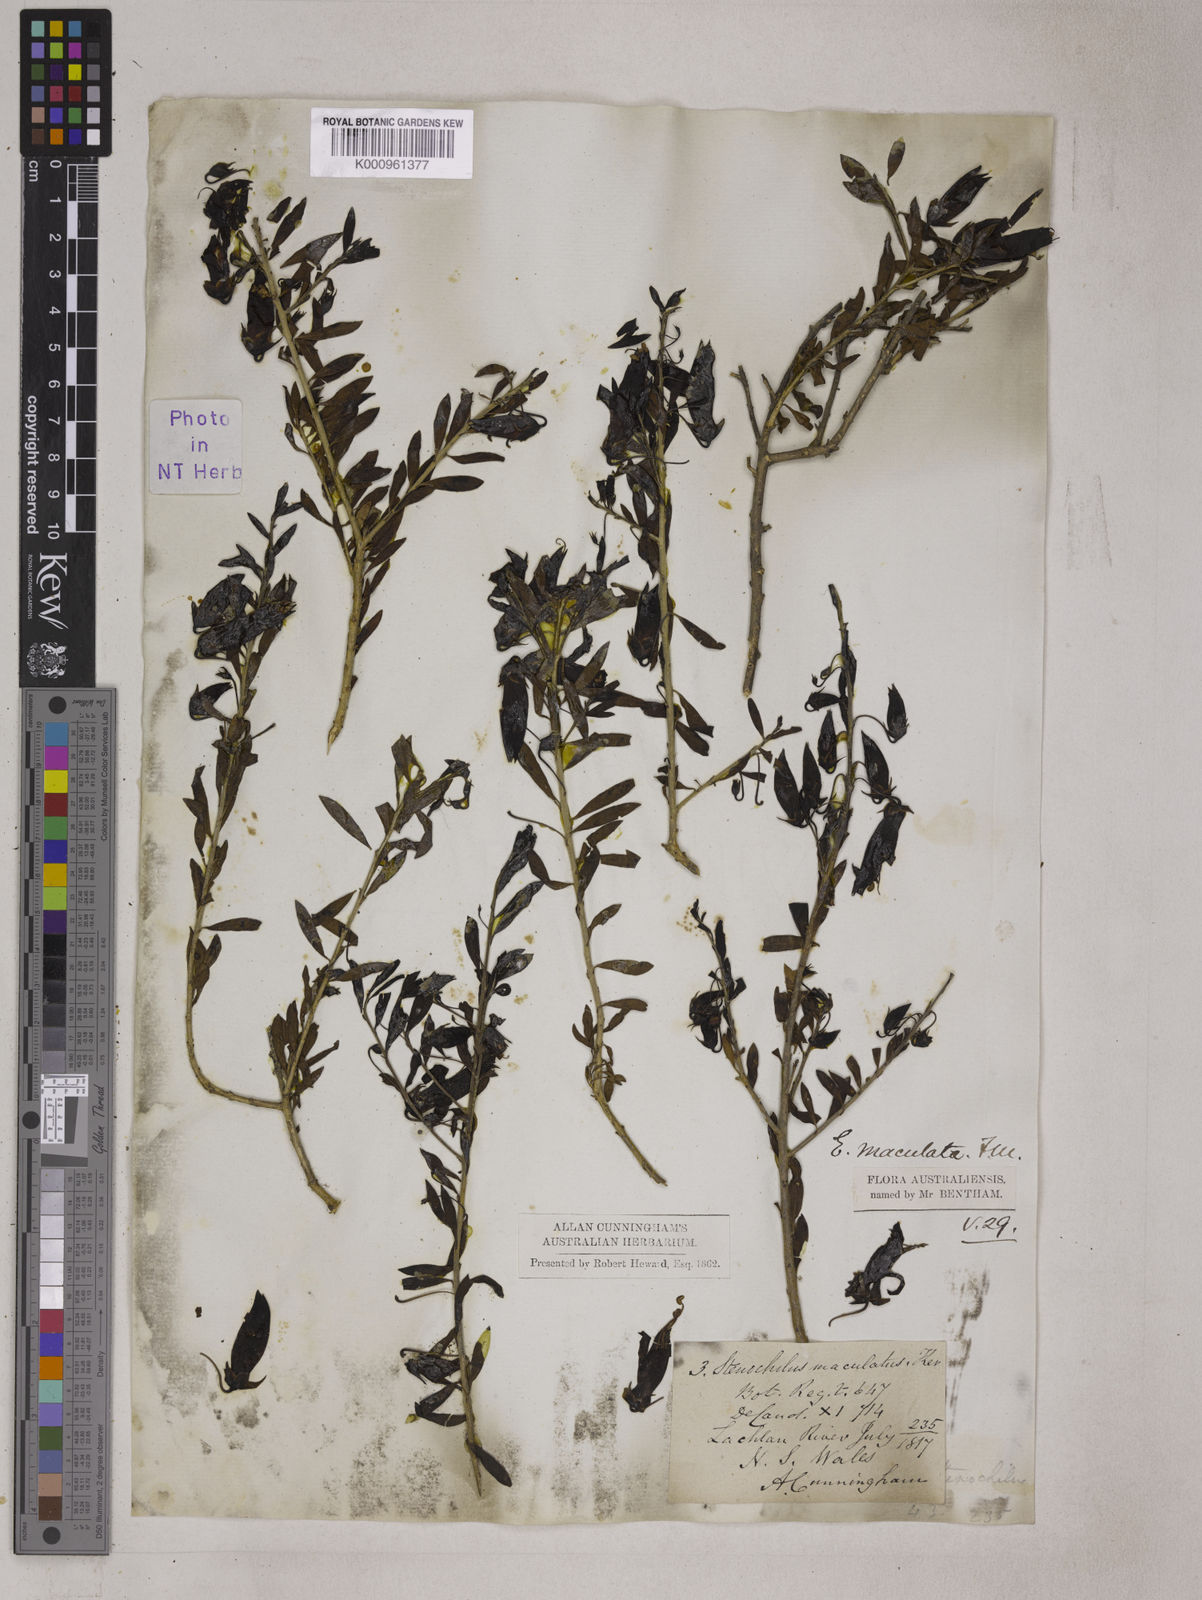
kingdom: Plantae
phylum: Tracheophyta
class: Magnoliopsida
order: Lamiales
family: Scrophulariaceae
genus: Eremophila
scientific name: Eremophila
